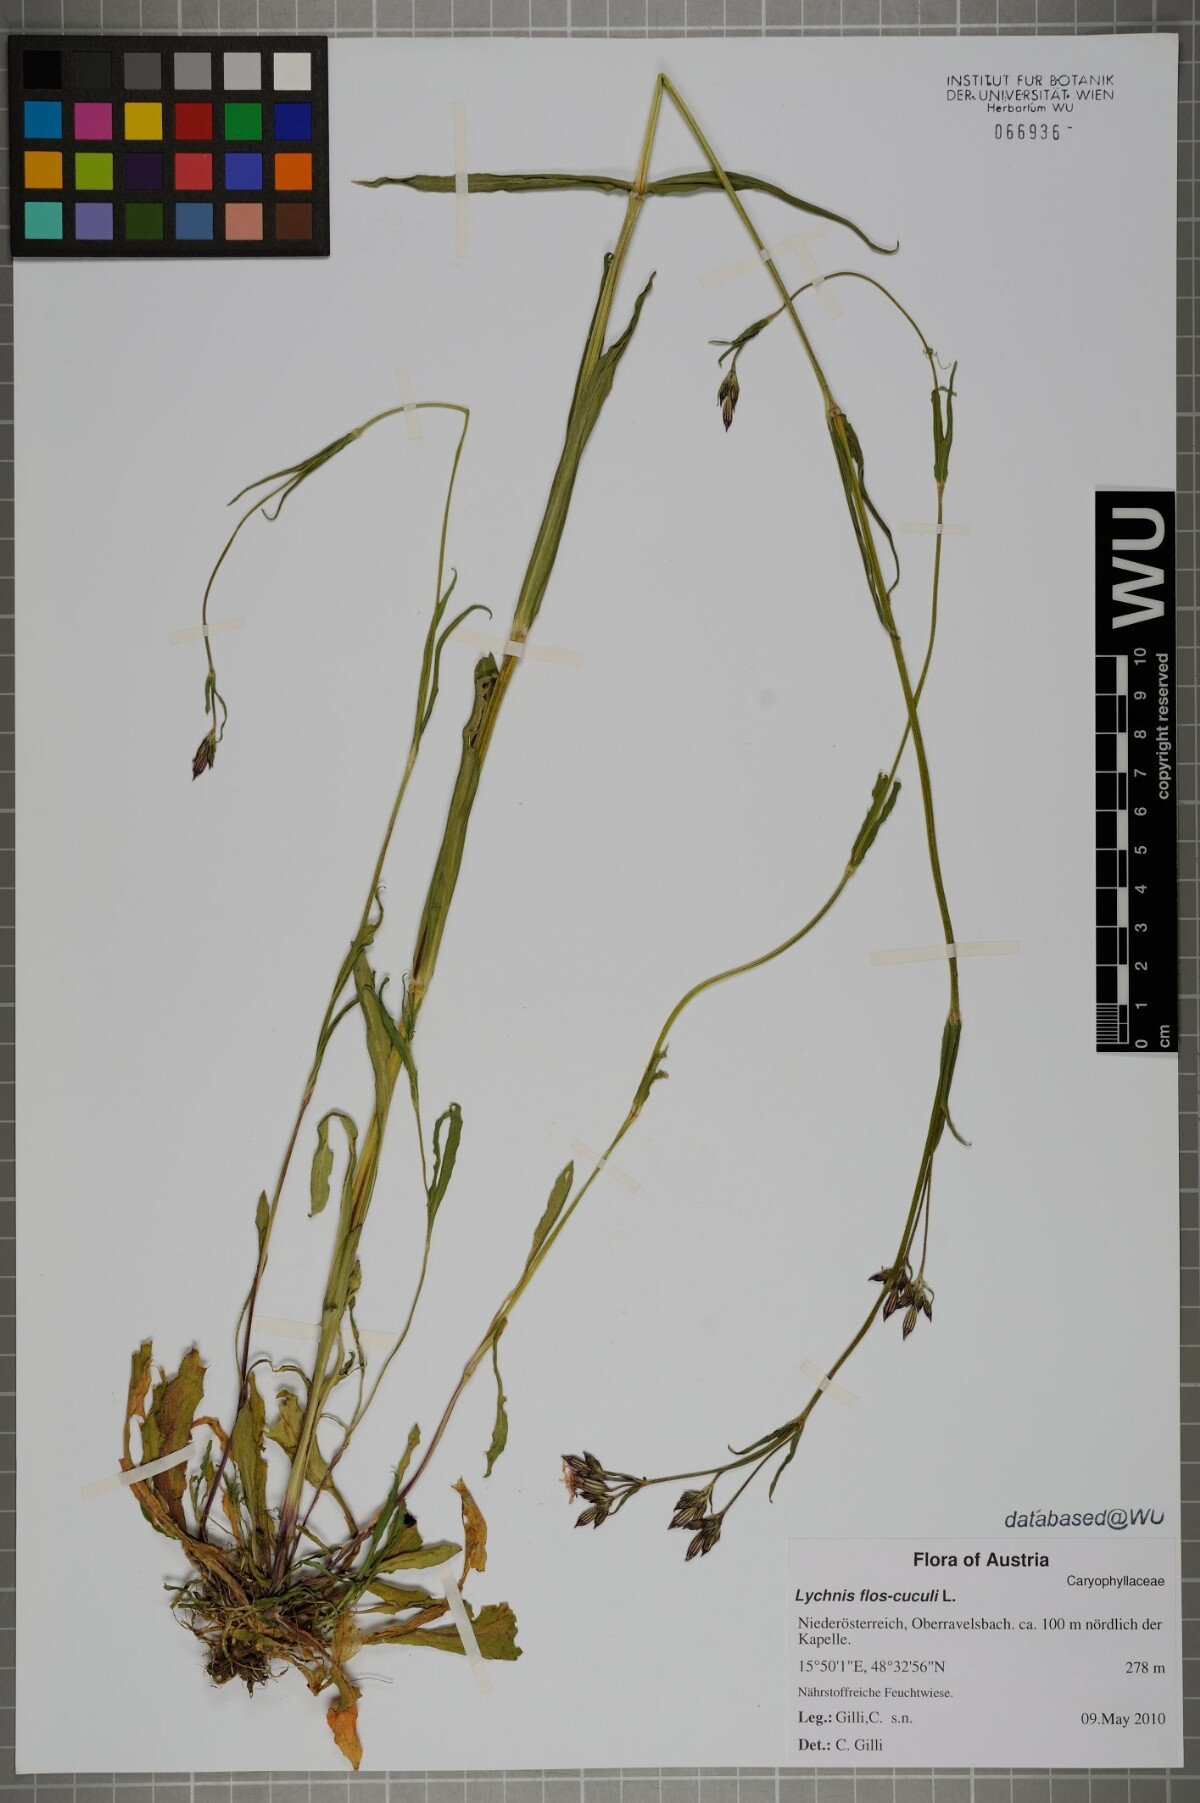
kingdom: Plantae
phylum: Tracheophyta
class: Magnoliopsida
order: Caryophyllales
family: Caryophyllaceae
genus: Silene
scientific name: Silene flos-cuculi
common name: Ragged-robin
